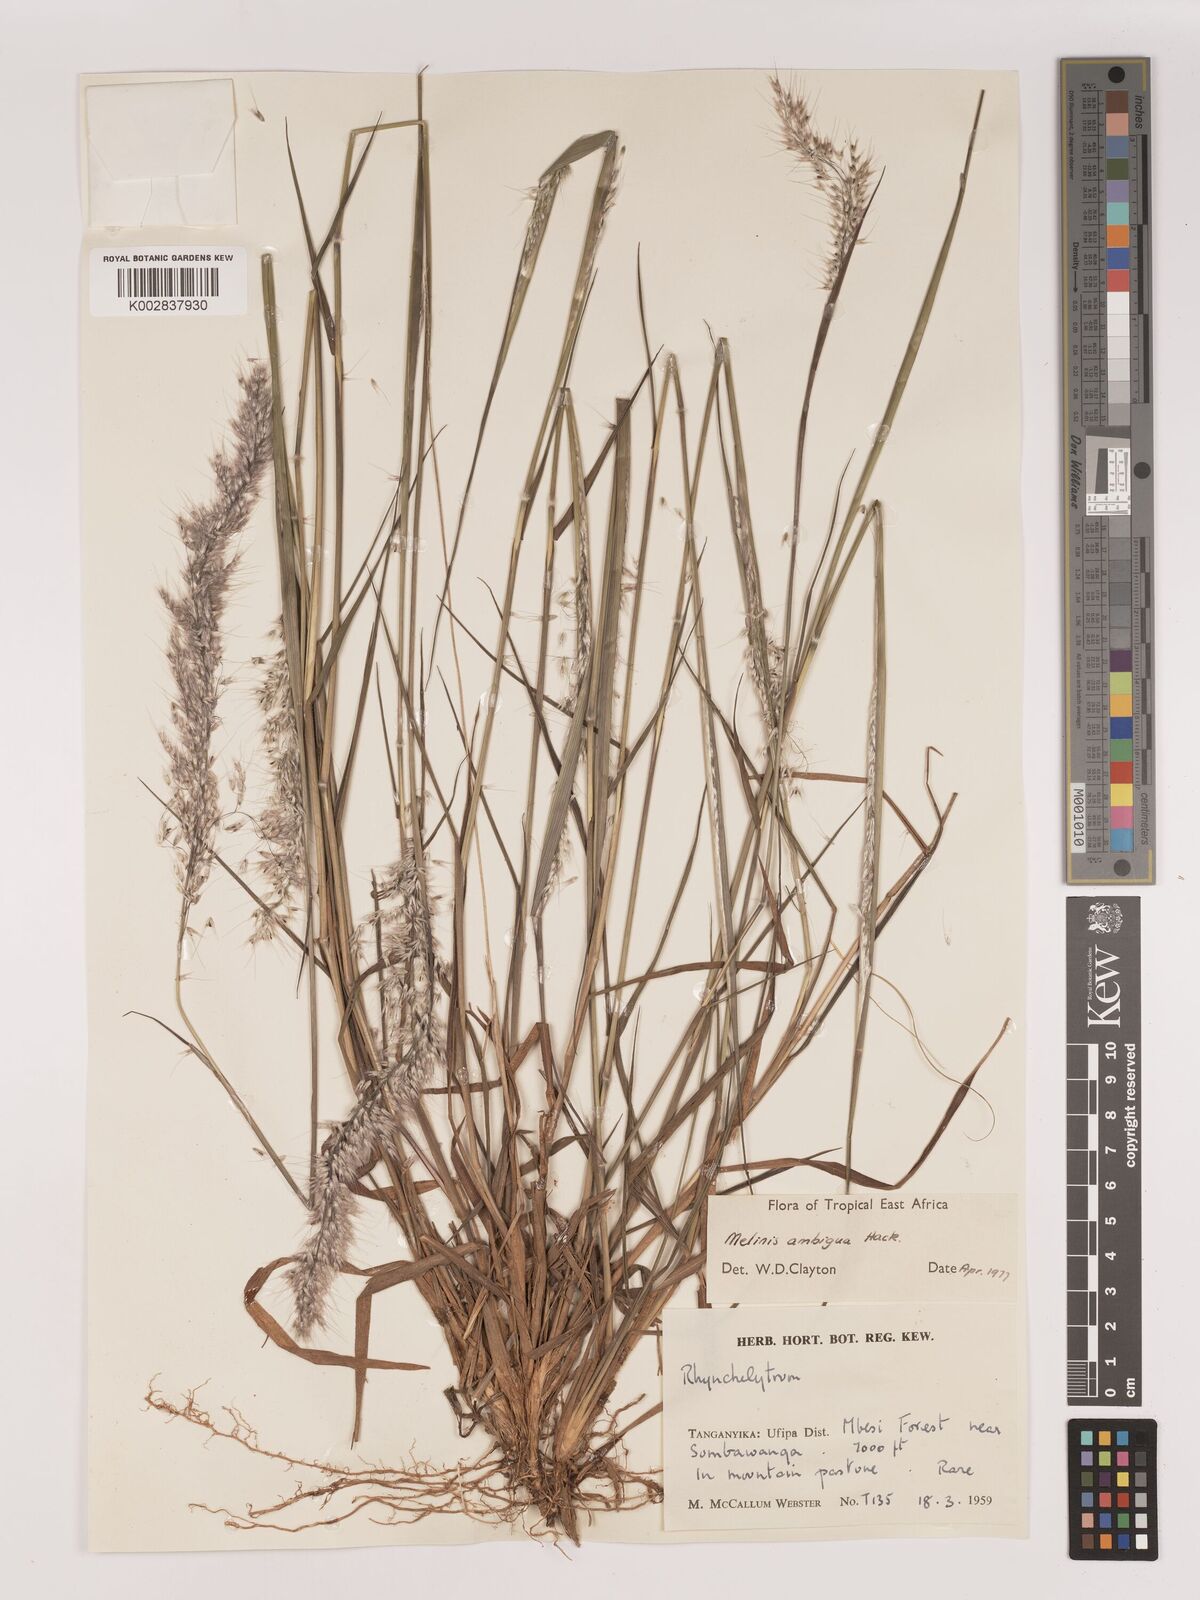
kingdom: Plantae
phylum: Tracheophyta
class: Liliopsida
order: Poales
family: Poaceae
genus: Melinis
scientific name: Melinis ambigua
